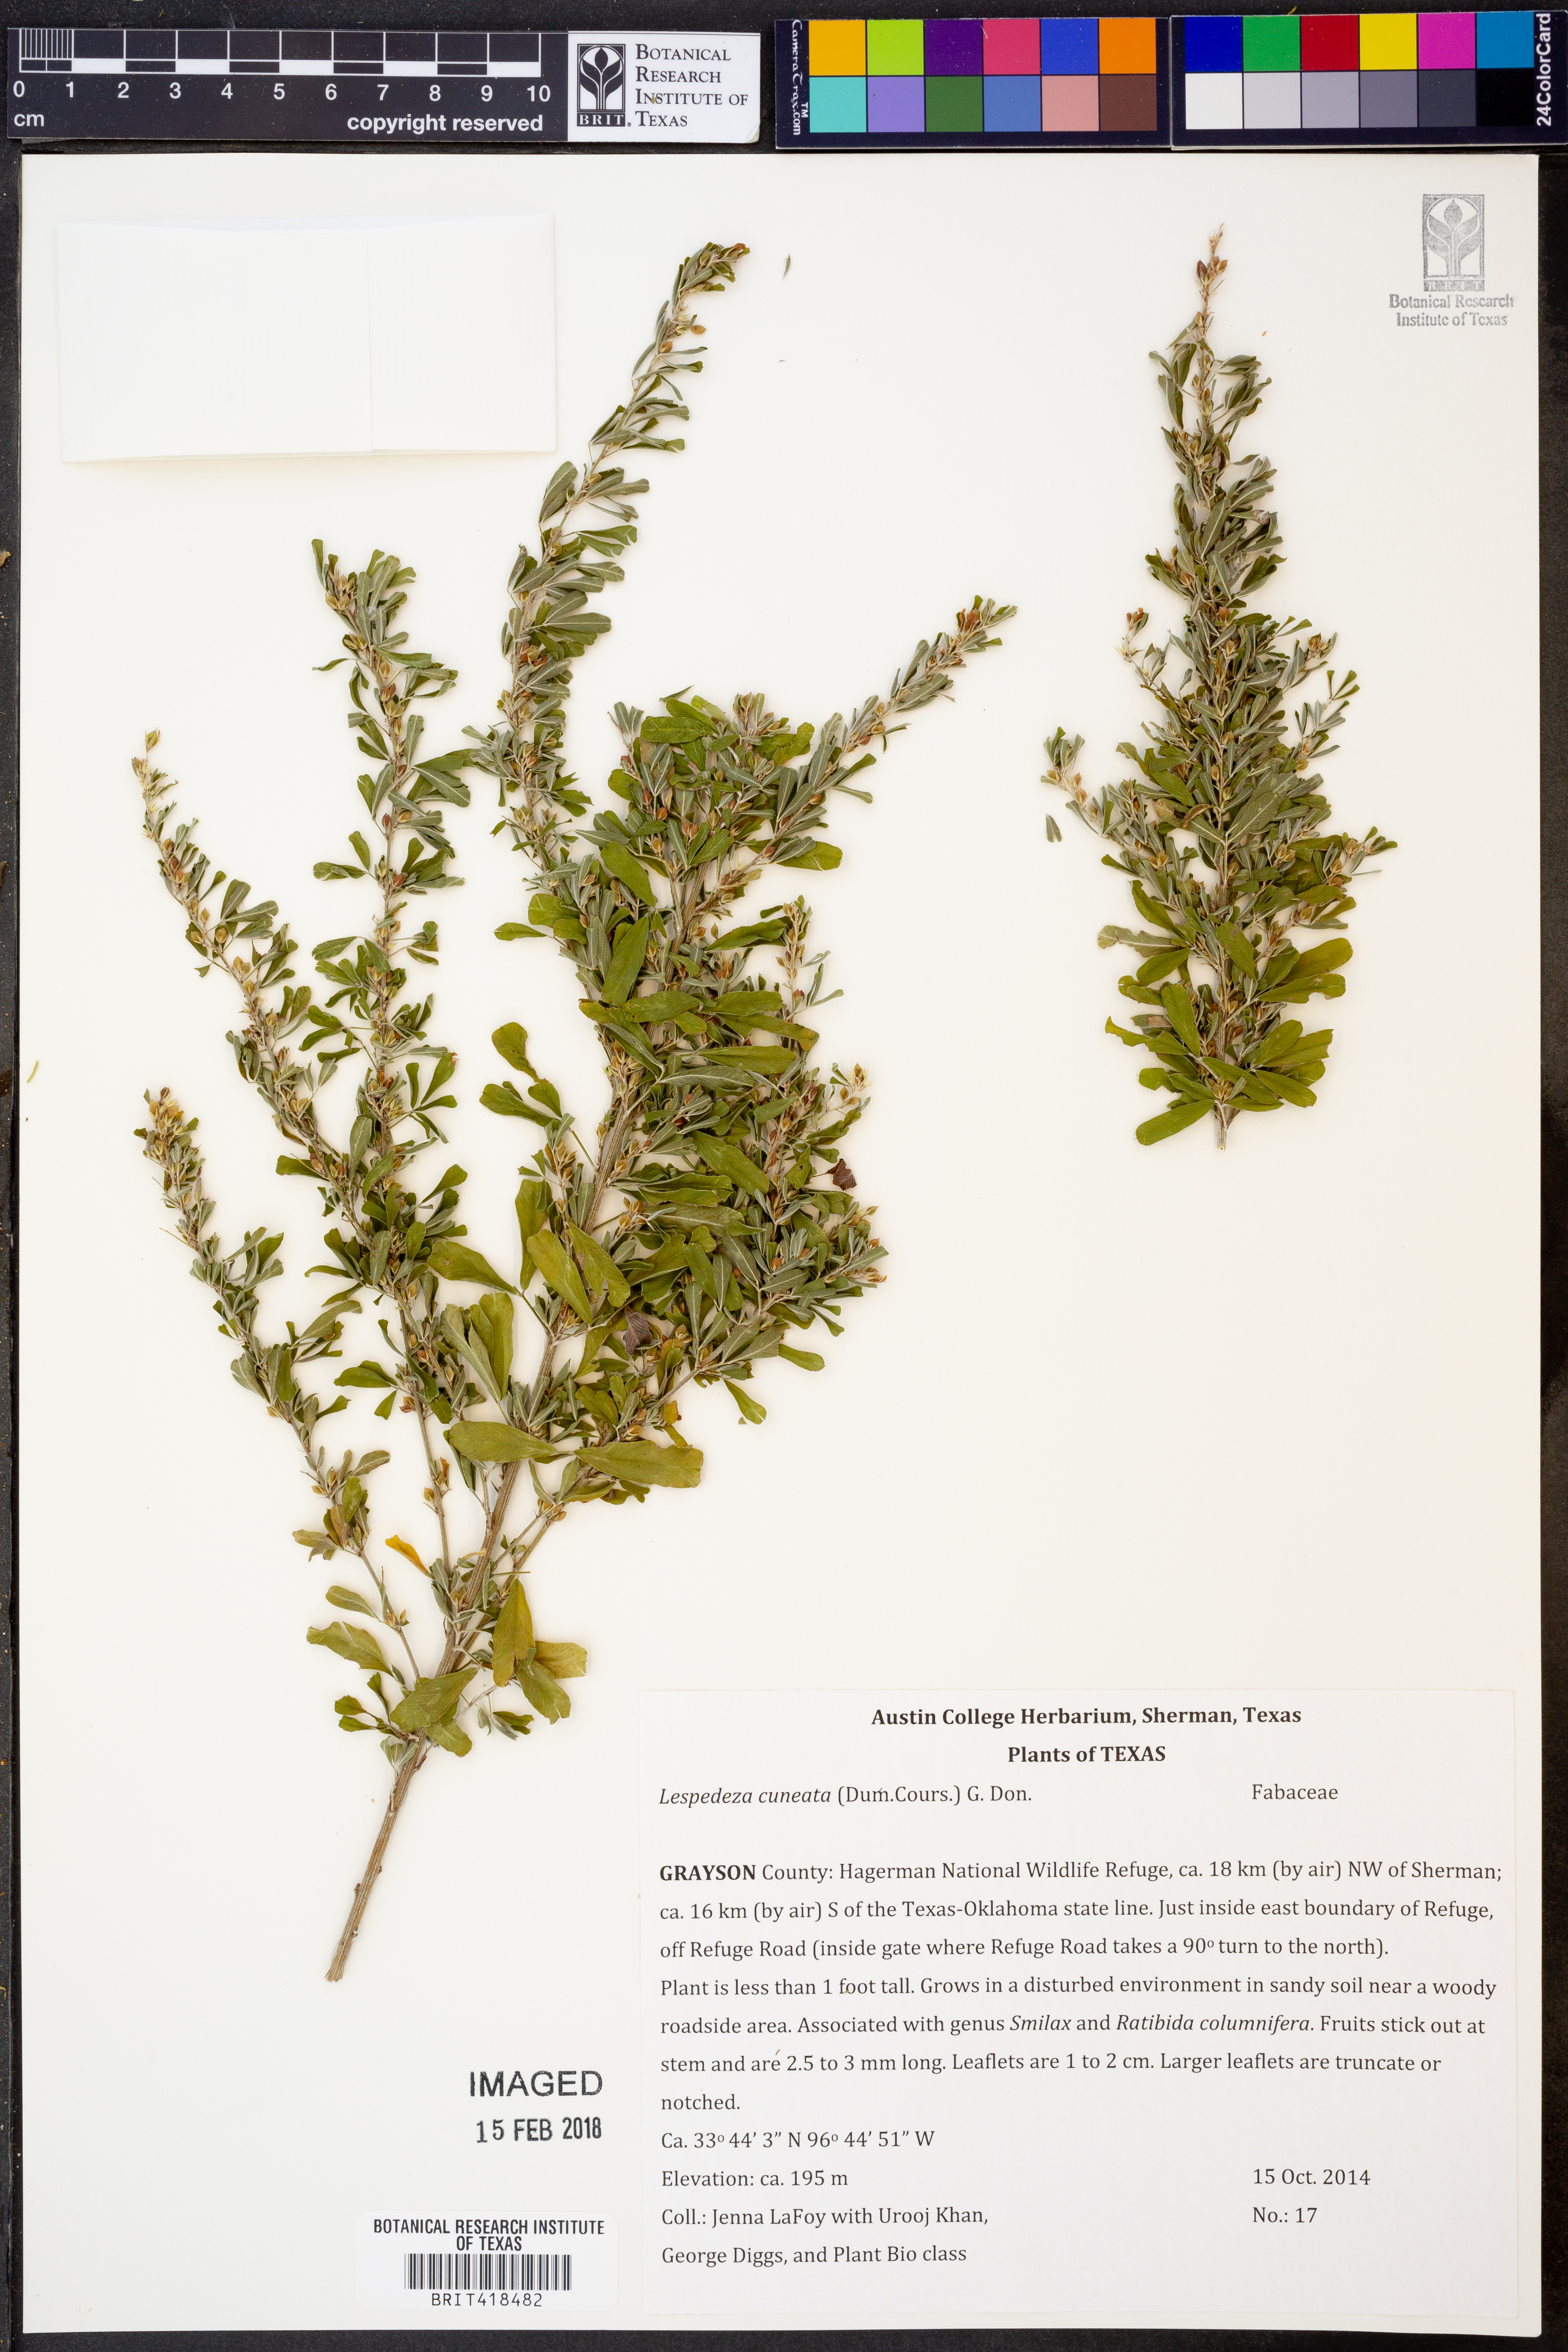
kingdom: Plantae
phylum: Tracheophyta
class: Magnoliopsida
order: Fabales
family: Fabaceae
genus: Lespedeza
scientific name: Lespedeza cuneata
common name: Chinese bush-clover
